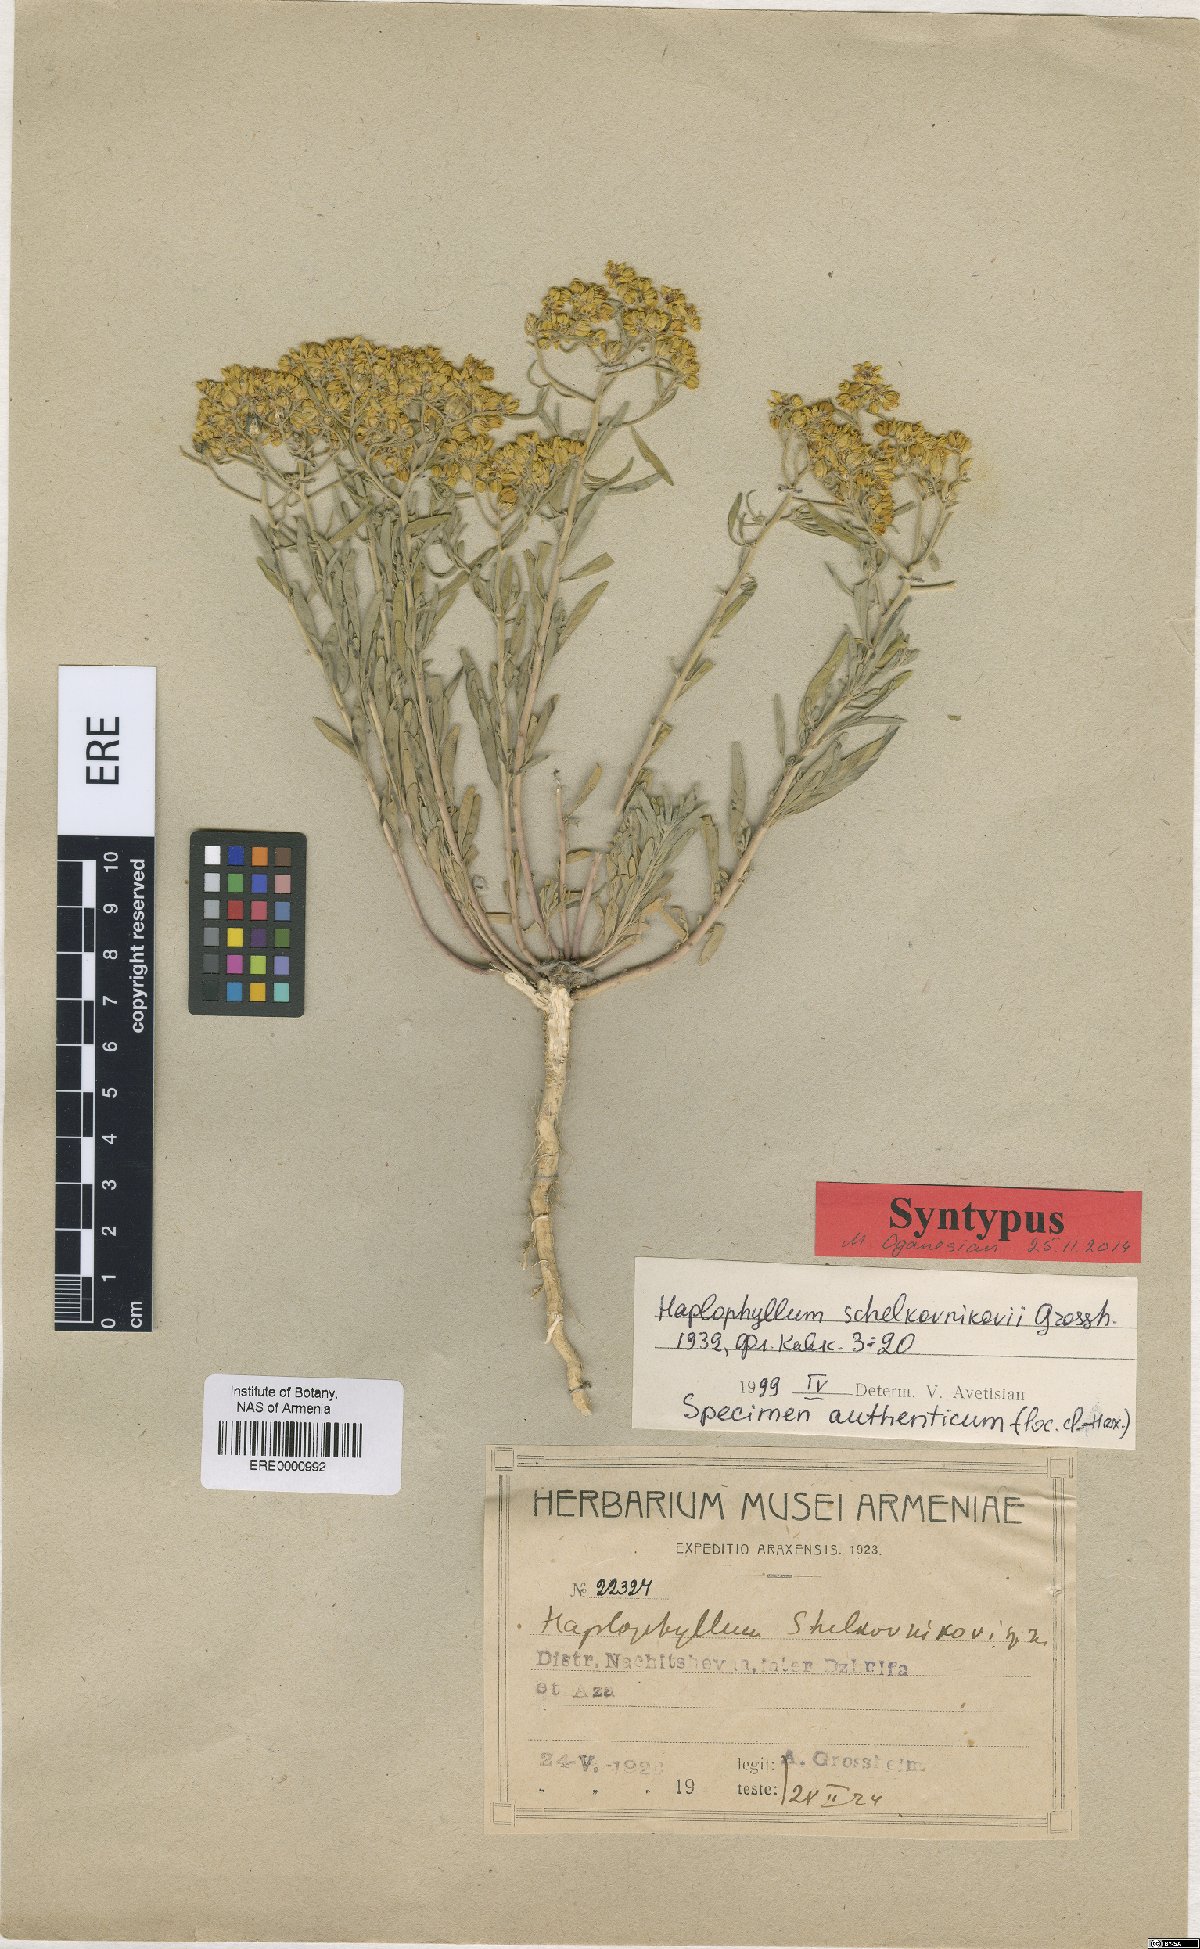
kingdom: Plantae
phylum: Tracheophyta
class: Magnoliopsida
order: Sapindales
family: Rutaceae
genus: Haplophyllum
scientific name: Haplophyllum shelkovnikovii
